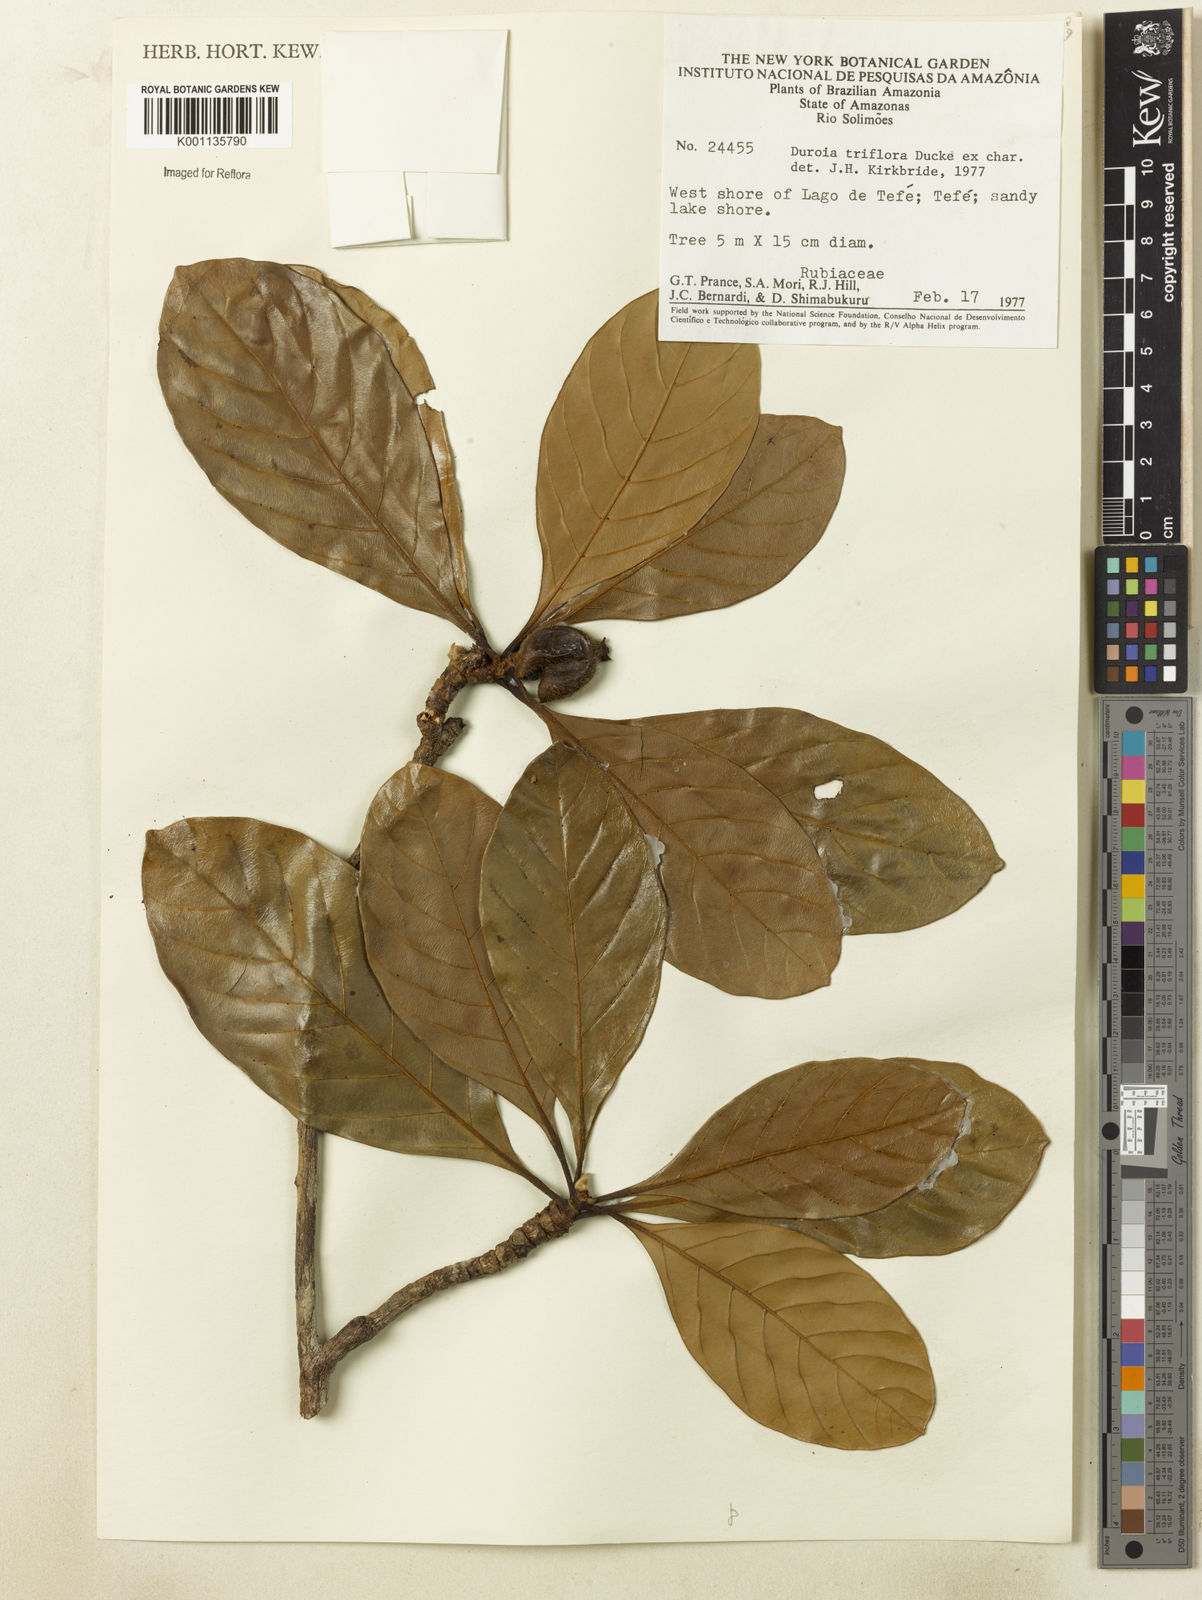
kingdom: Plantae
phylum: Tracheophyta
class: Magnoliopsida
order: Gentianales
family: Rubiaceae
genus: Duroia
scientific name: Duroia triflora
